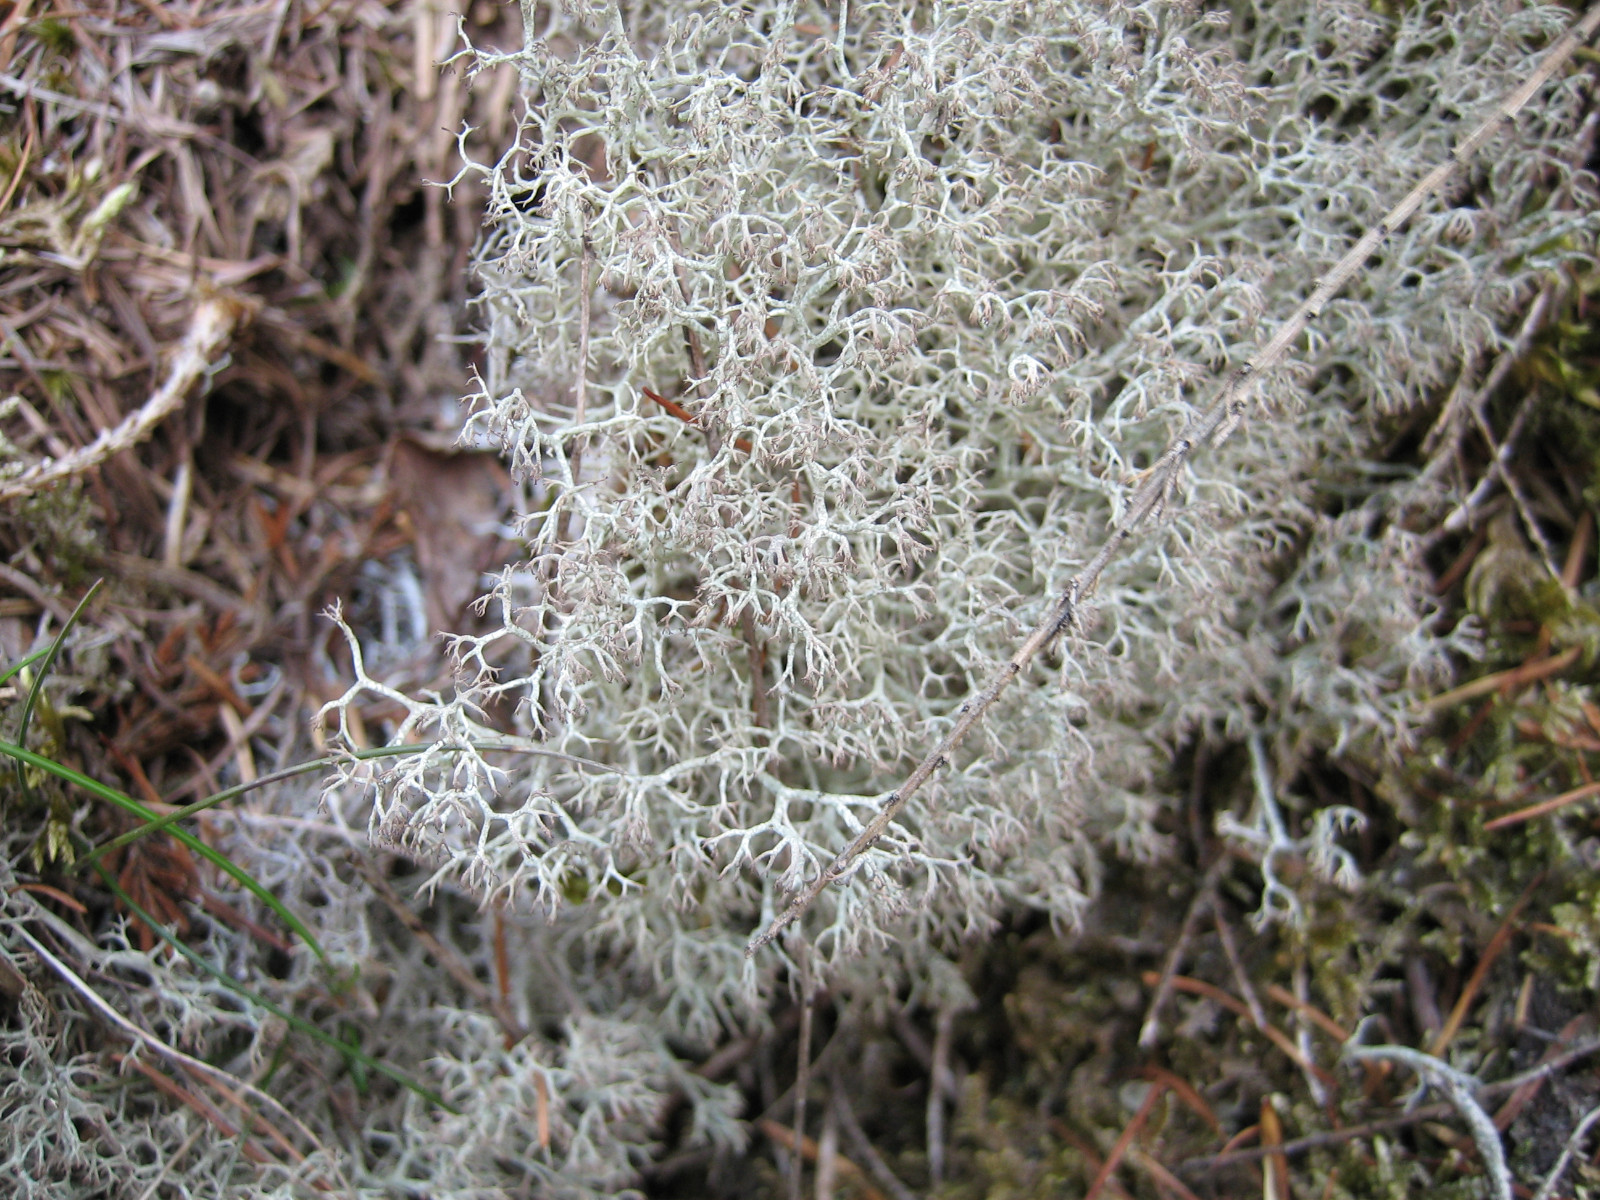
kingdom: Fungi
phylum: Ascomycota
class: Lecanoromycetes
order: Lecanorales
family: Cladoniaceae
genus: Cladonia
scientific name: Cladonia ciliata
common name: spinkel rensdyrlav
